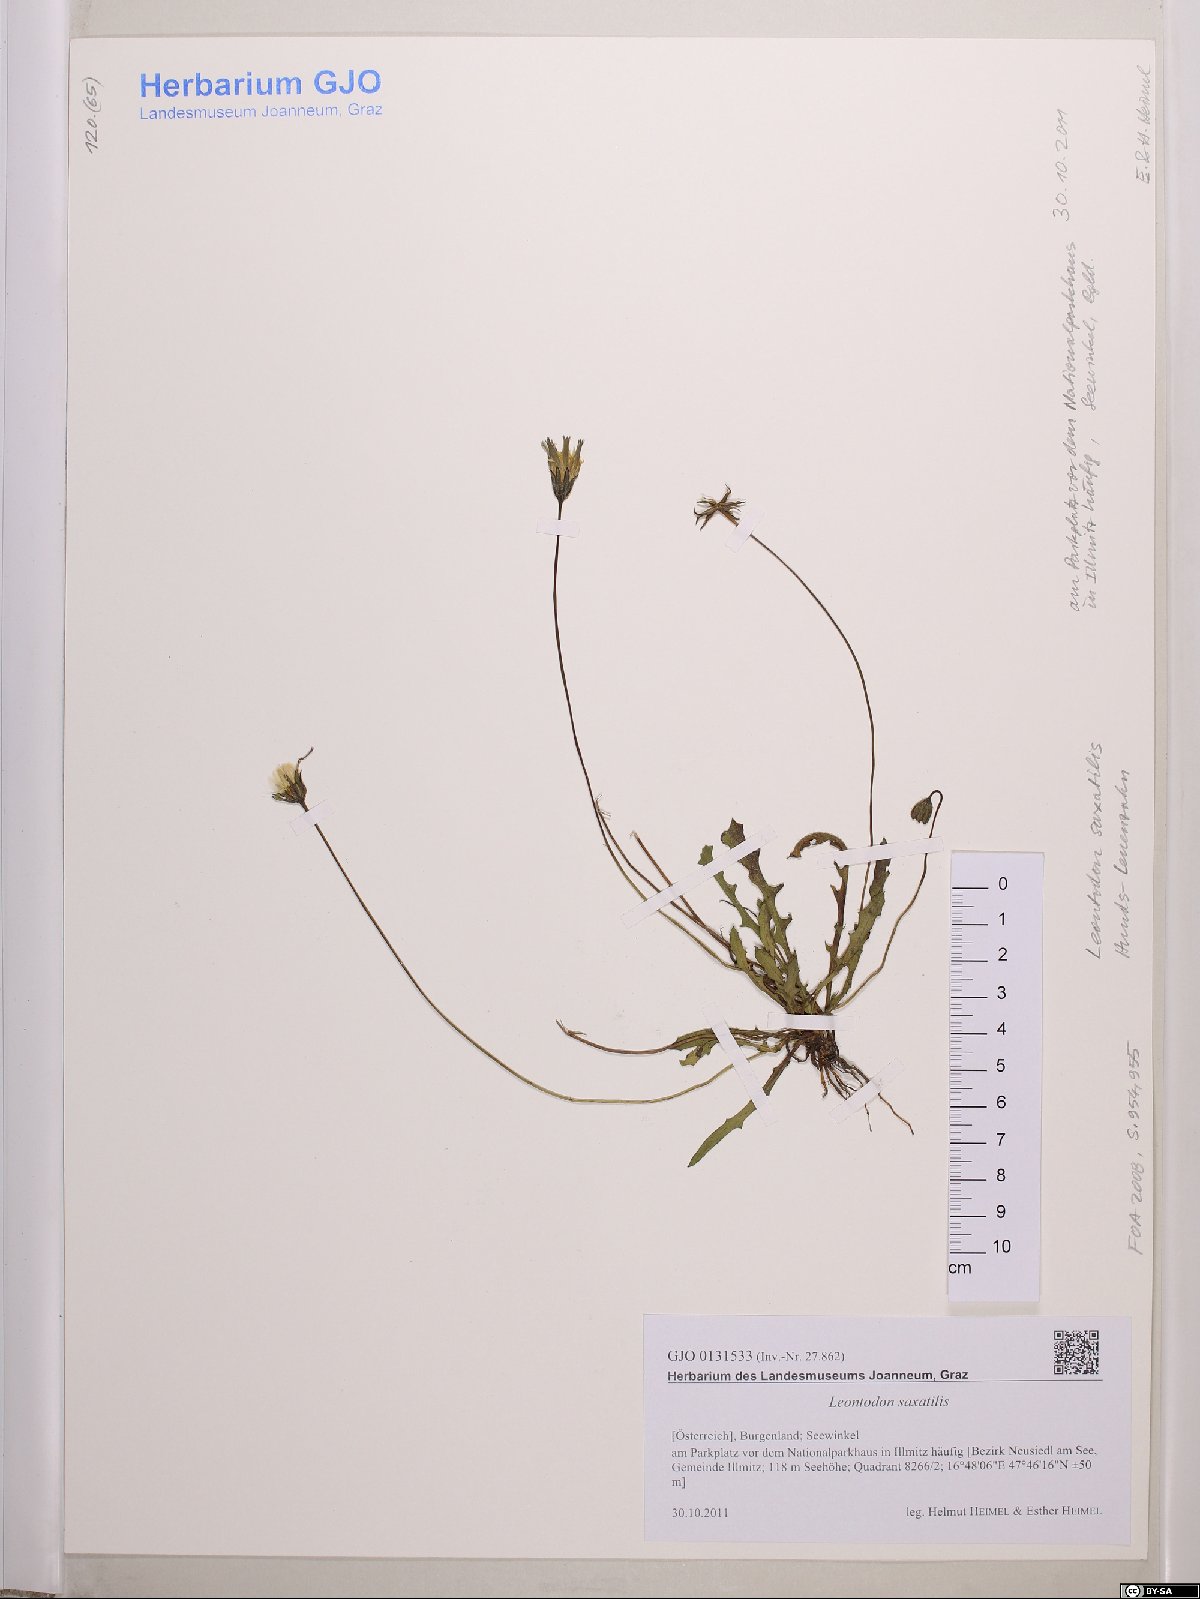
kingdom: Plantae
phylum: Tracheophyta
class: Magnoliopsida
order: Asterales
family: Asteraceae
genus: Thrincia
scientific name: Thrincia saxatilis
